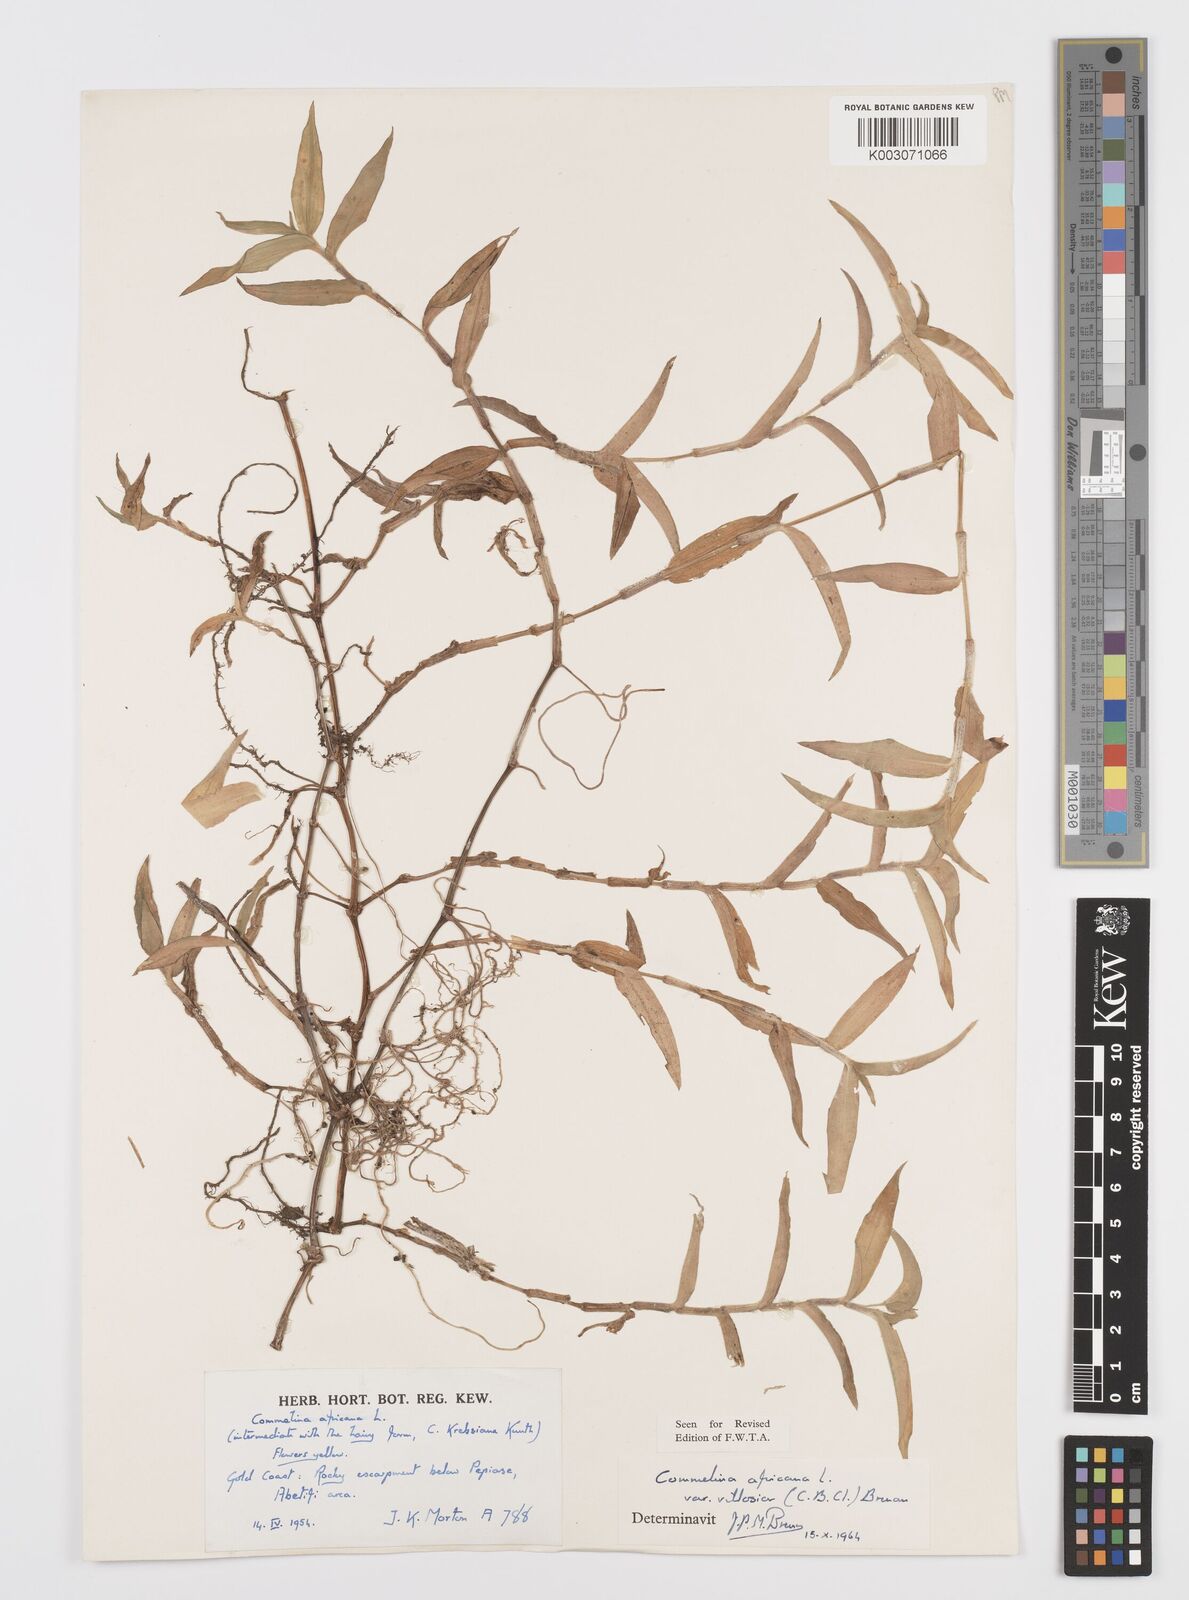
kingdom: Plantae
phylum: Tracheophyta
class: Liliopsida
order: Commelinales
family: Commelinaceae
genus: Commelina
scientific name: Commelina africana
